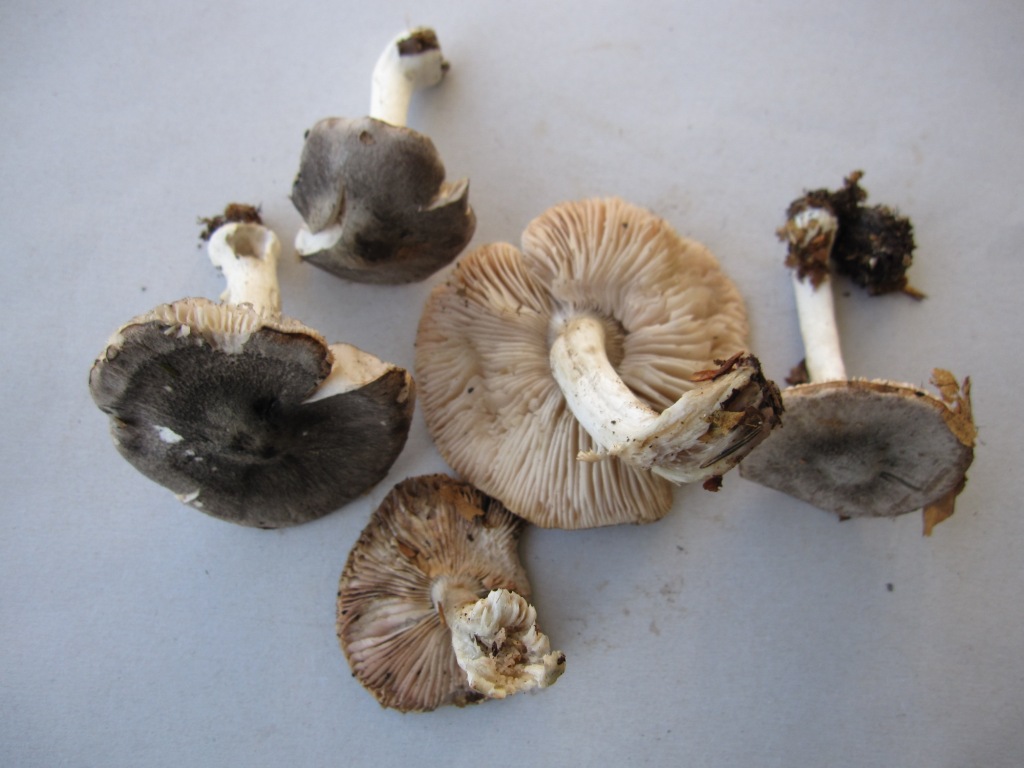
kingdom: Fungi
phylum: Basidiomycota
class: Agaricomycetes
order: Agaricales
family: Tricholomataceae
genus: Tricholoma
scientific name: Tricholoma orirubens
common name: rødbladet ridderhat
